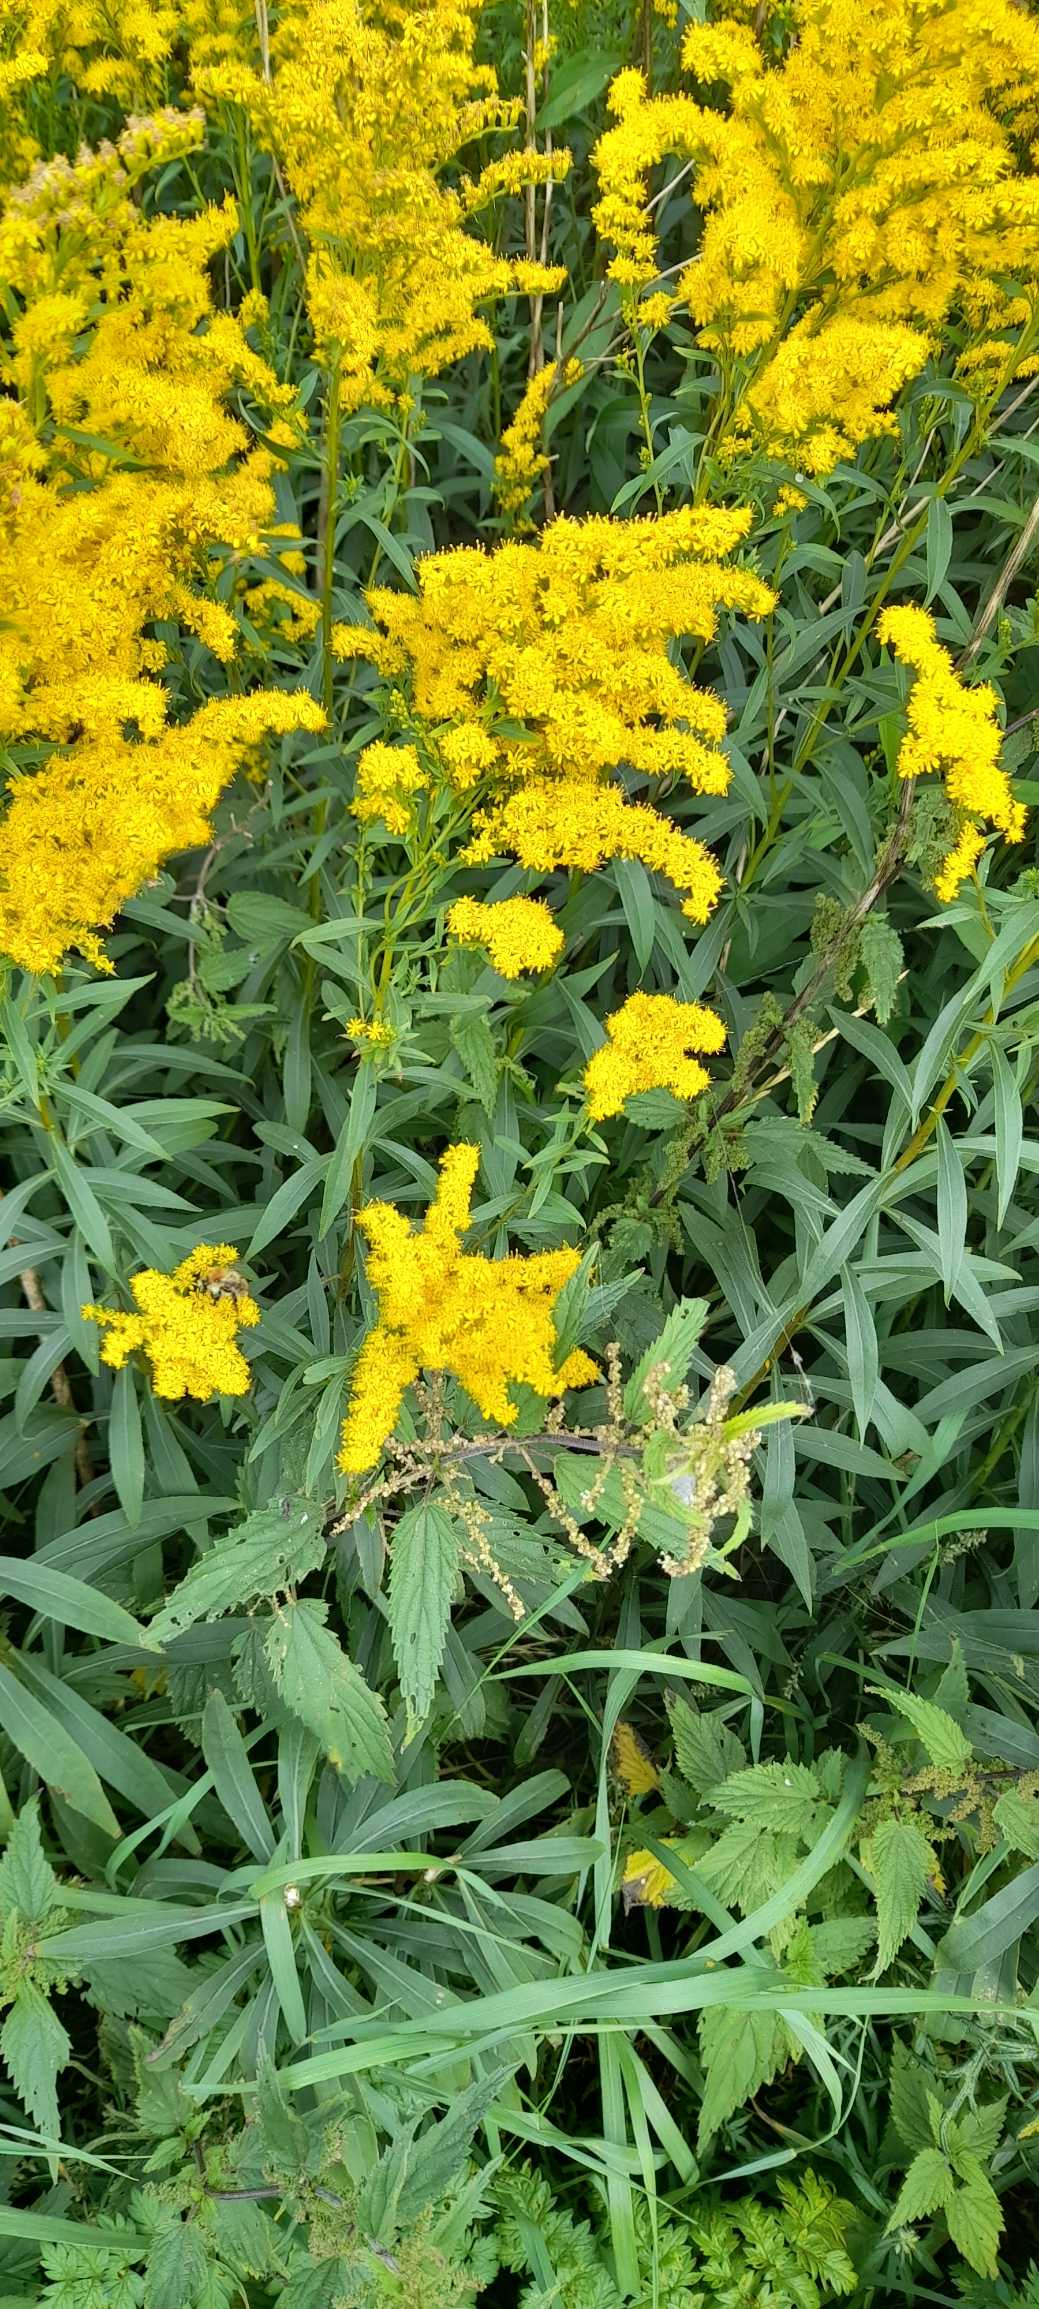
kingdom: Plantae
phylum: Tracheophyta
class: Magnoliopsida
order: Asterales
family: Asteraceae
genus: Solidago
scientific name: Solidago gigantea
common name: Sildig gyldenris
